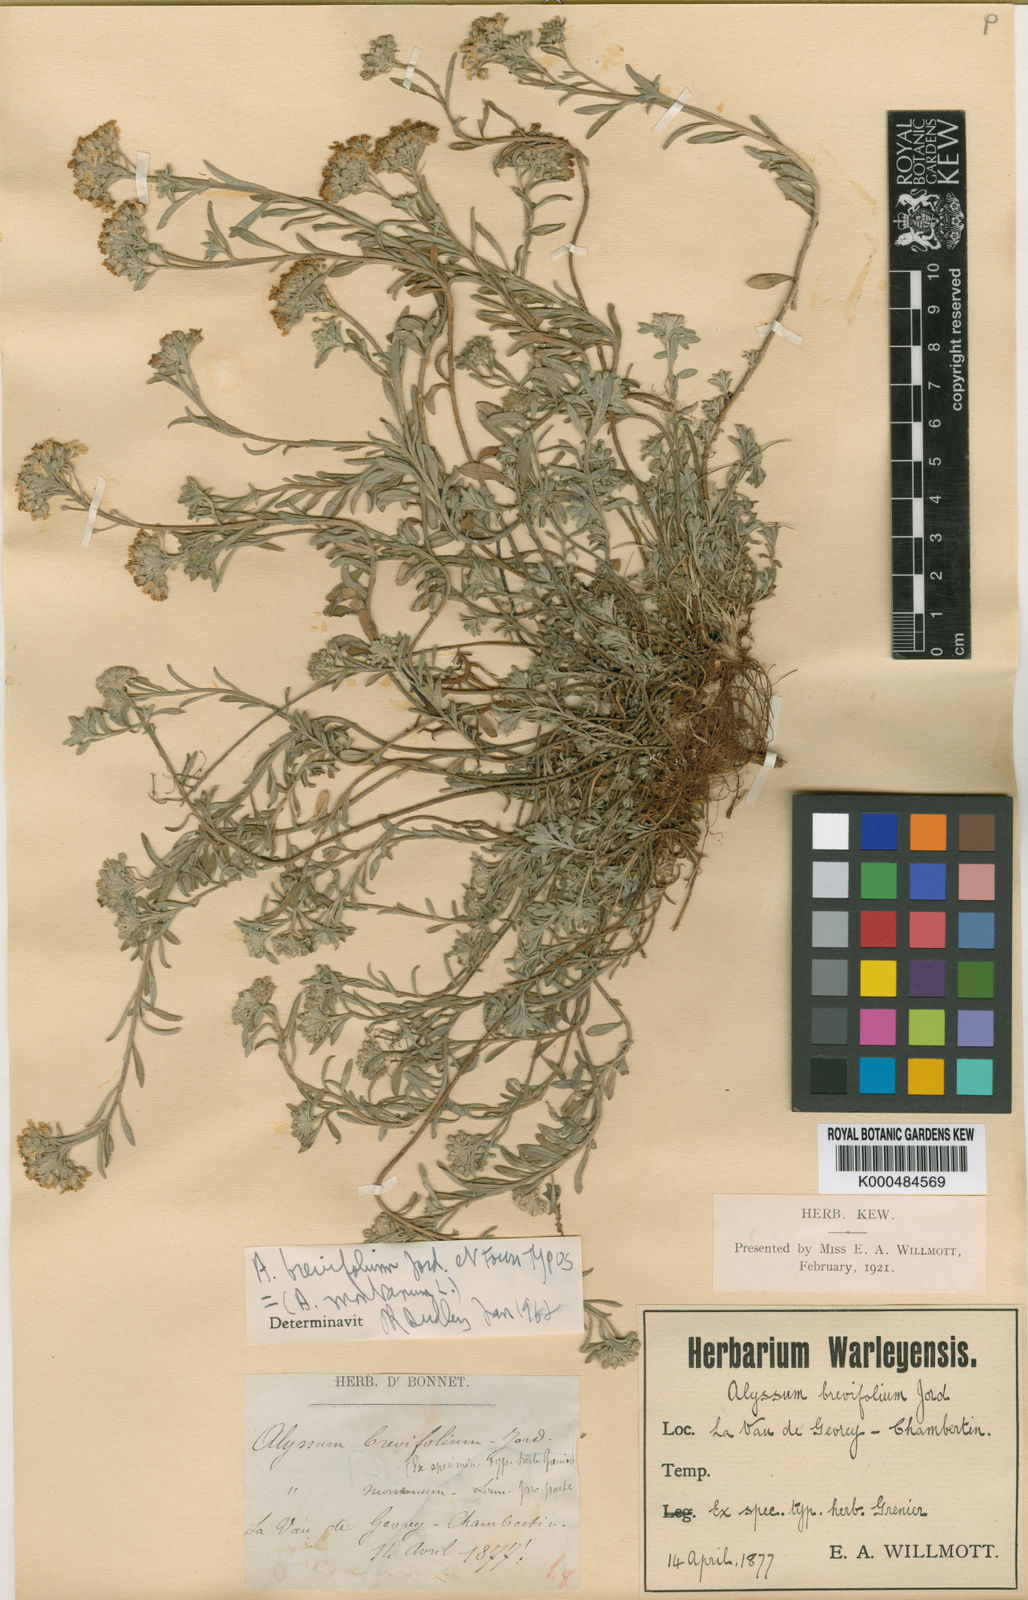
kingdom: Plantae
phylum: Tracheophyta
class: Magnoliopsida
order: Brassicales
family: Brassicaceae
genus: Alyssum
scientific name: Alyssum montanum
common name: Mountain alison
